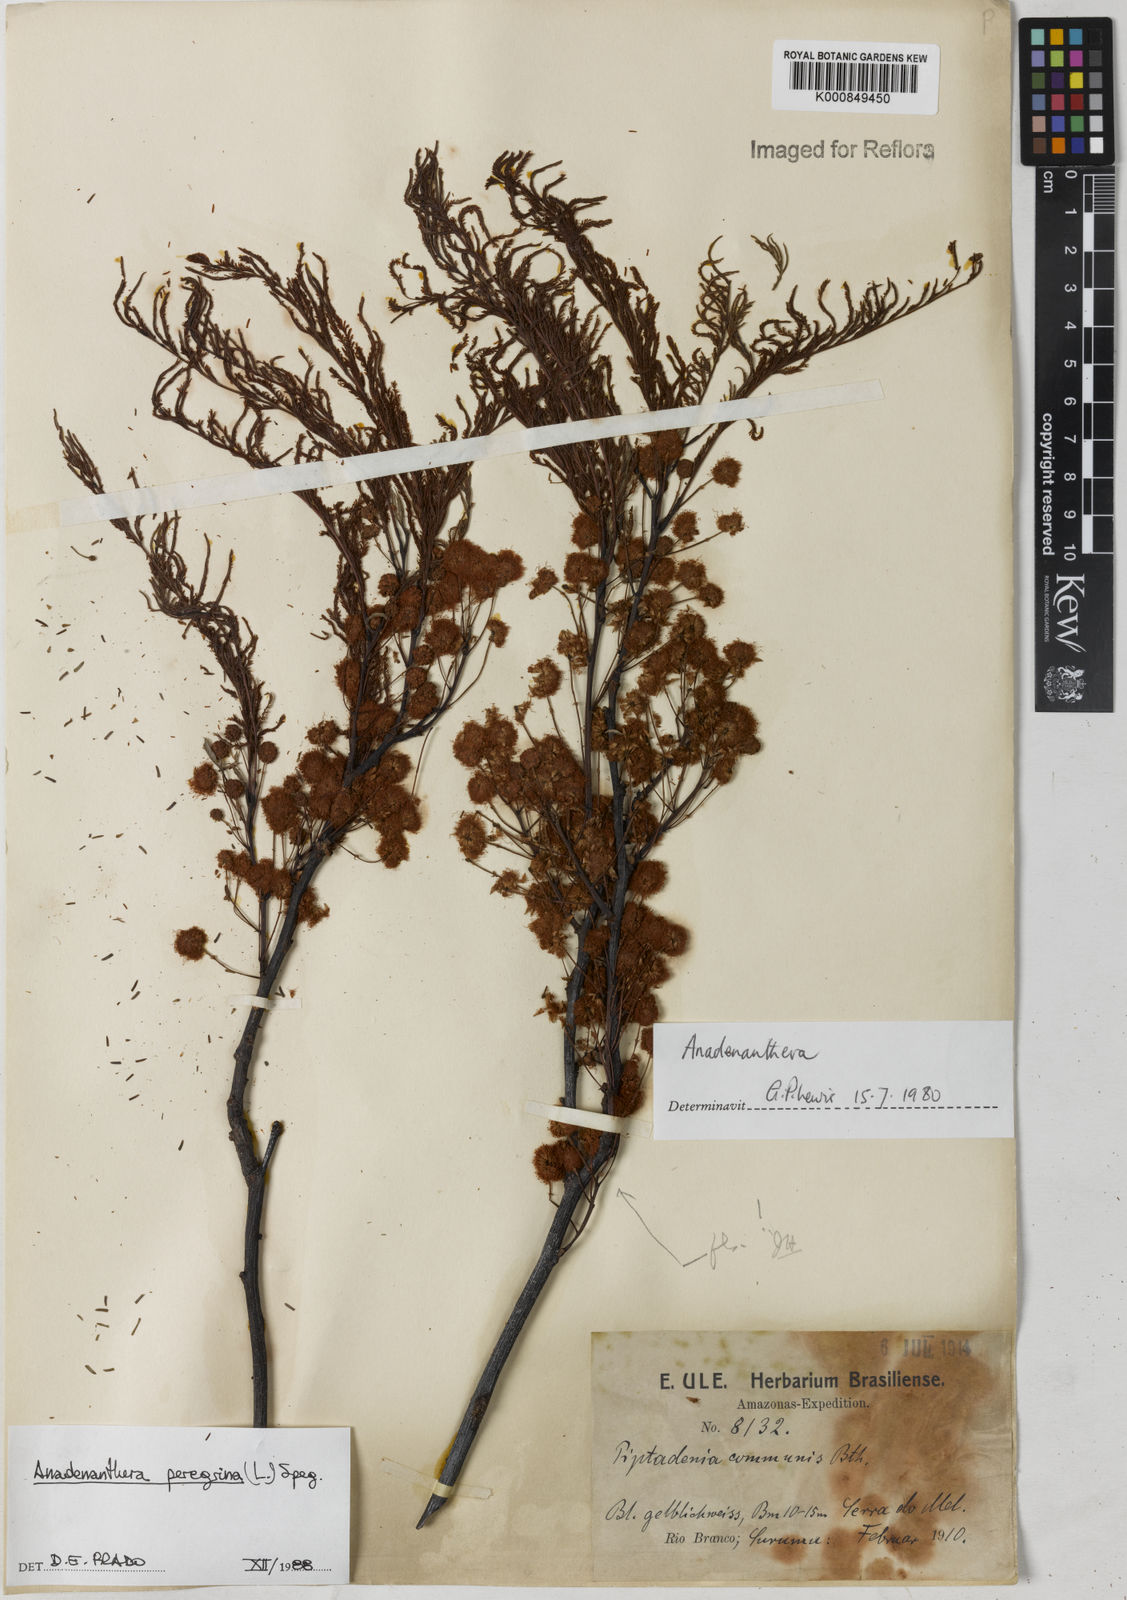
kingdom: Plantae
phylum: Tracheophyta
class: Magnoliopsida
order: Fabales
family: Fabaceae
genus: Anadenanthera
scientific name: Anadenanthera peregrina
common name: Cohoba
